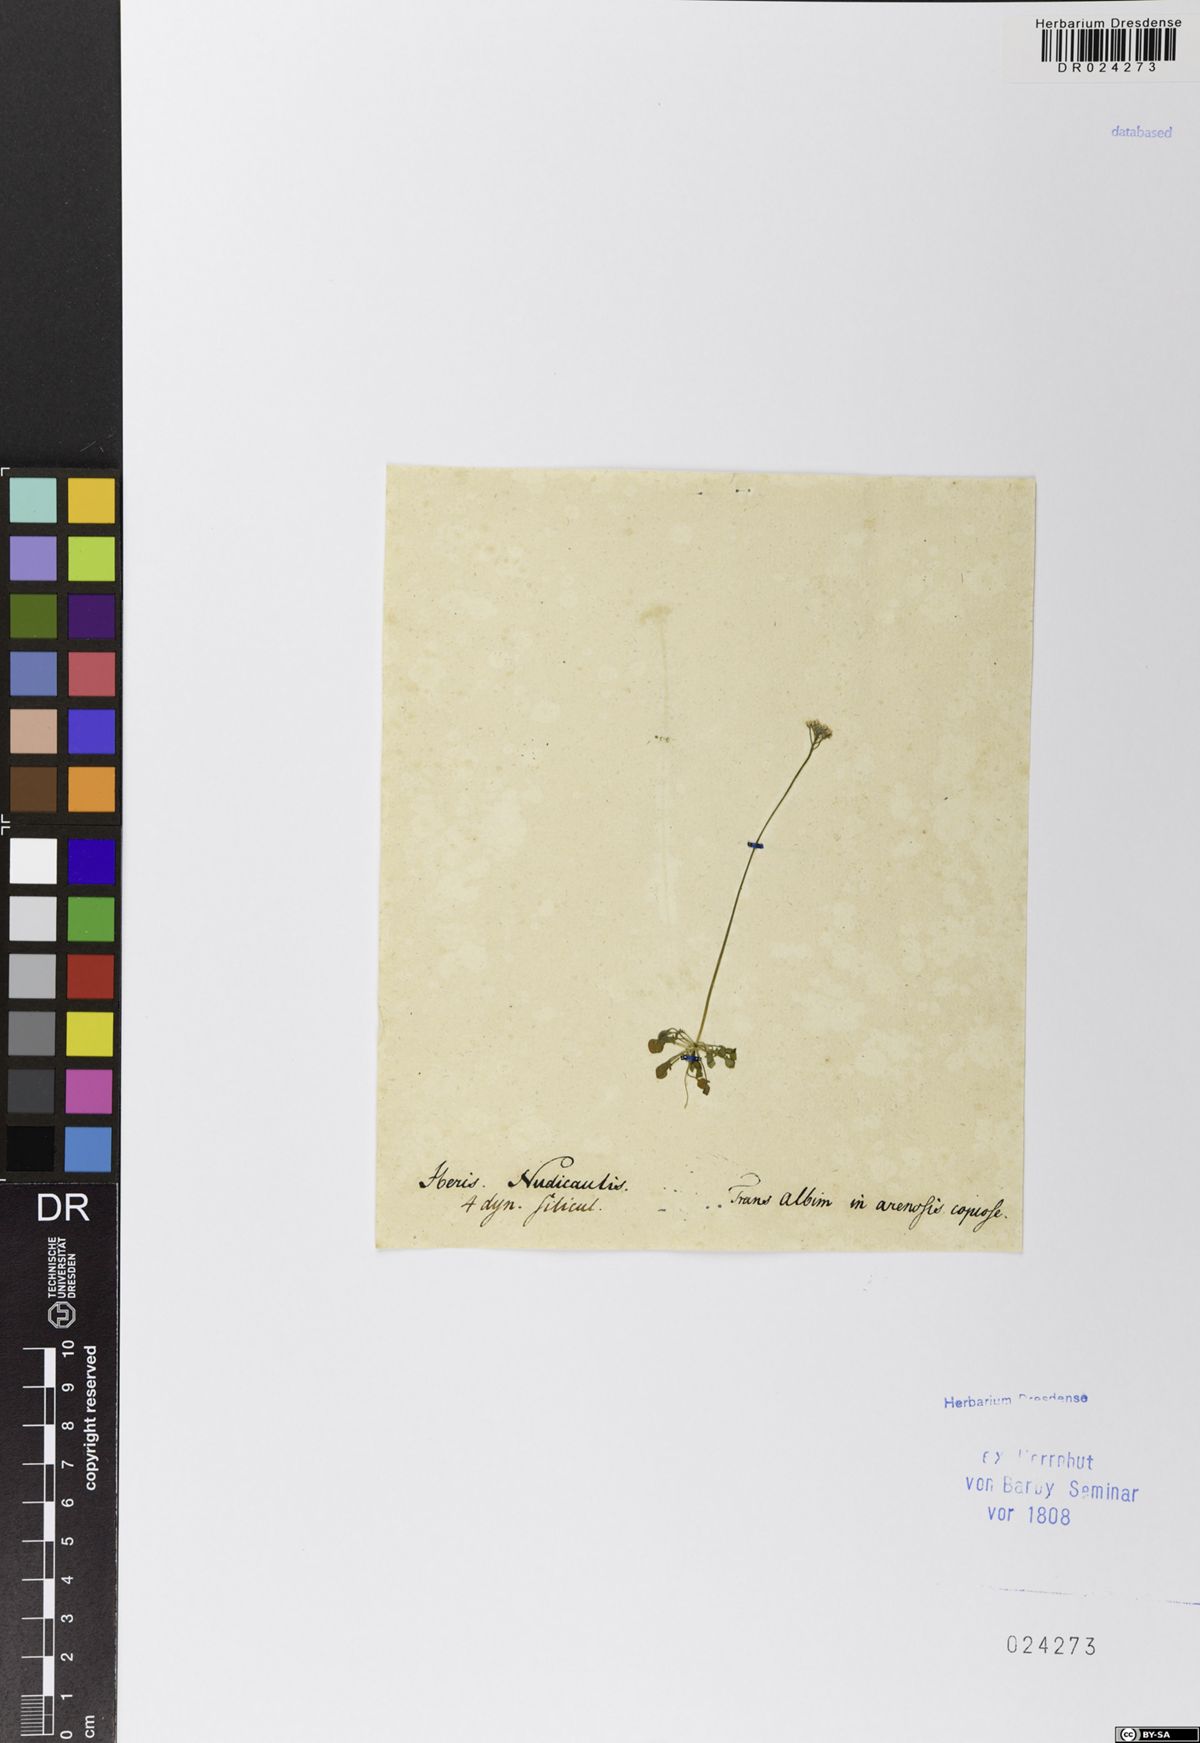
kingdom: Plantae
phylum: Tracheophyta
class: Magnoliopsida
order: Brassicales
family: Brassicaceae
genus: Teesdalia
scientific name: Teesdalia nudicaulis
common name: Shepherd's cress
